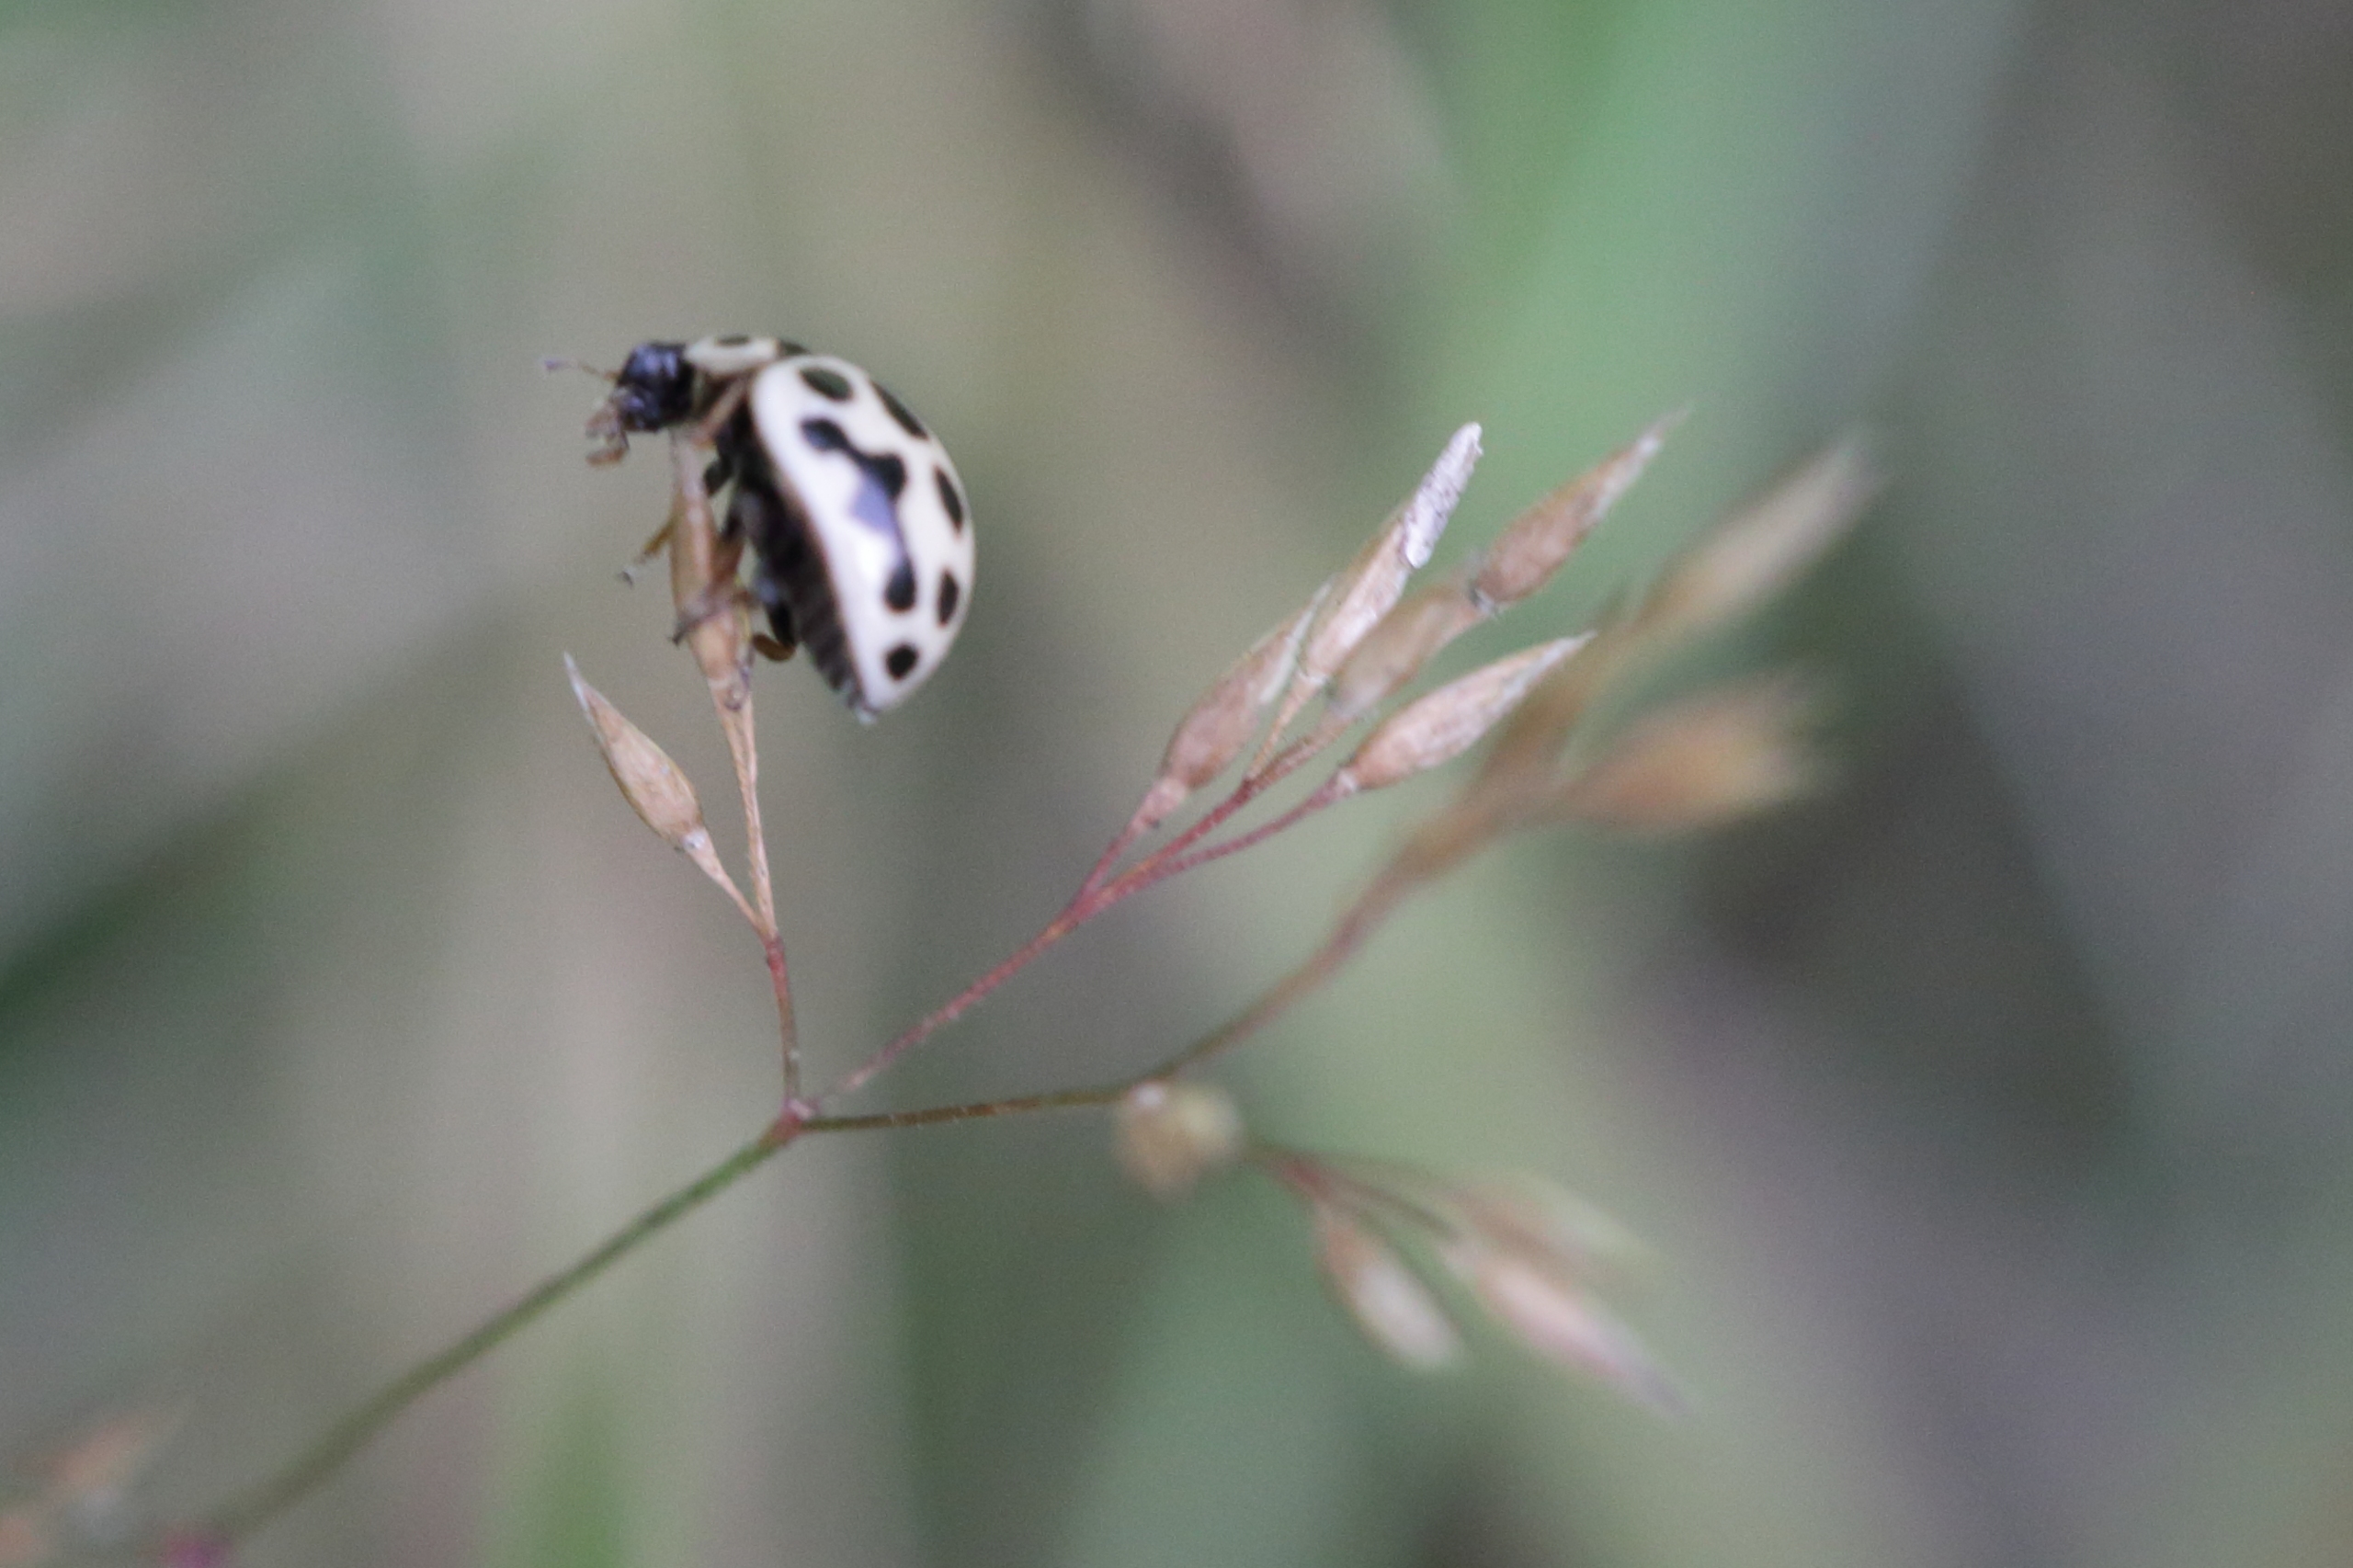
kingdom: Animalia
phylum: Arthropoda
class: Insecta
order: Coleoptera
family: Coccinellidae
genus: Tytthaspis
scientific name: Tytthaspis sedecimpunctata
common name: Sekstenprikket mariehøne
